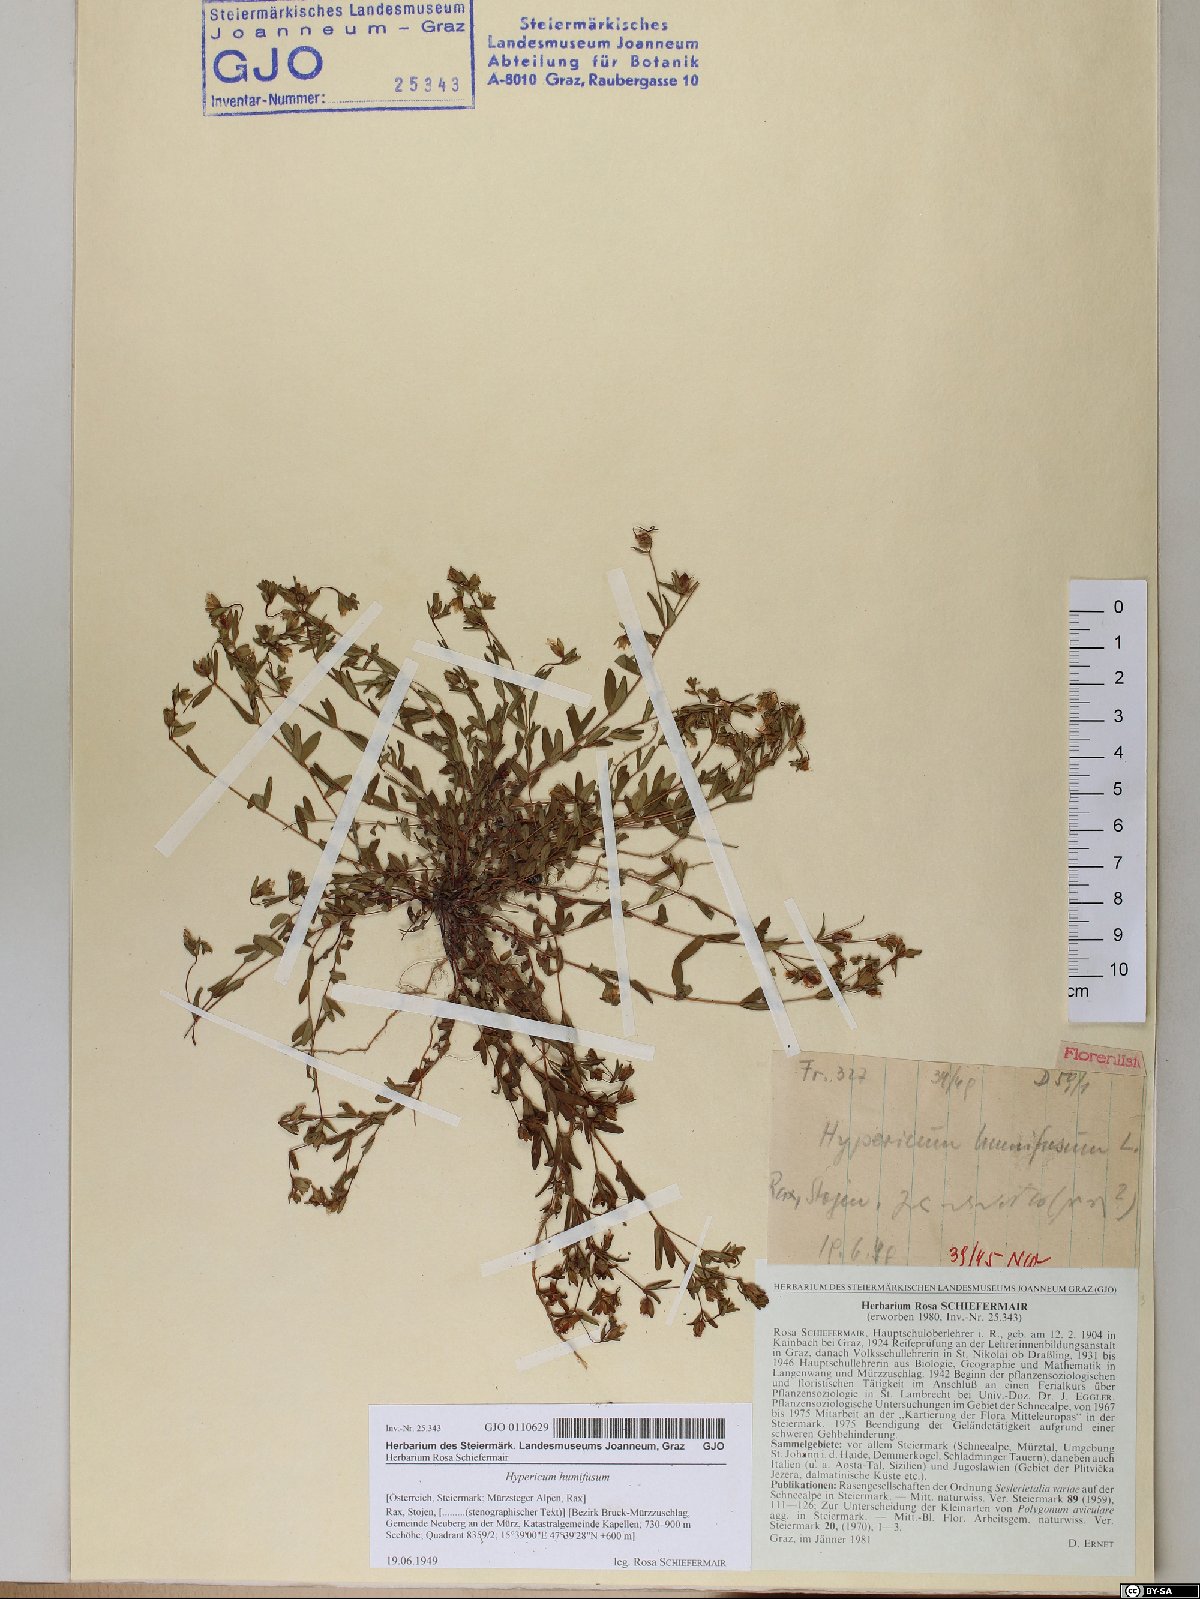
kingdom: Plantae
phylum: Tracheophyta
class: Magnoliopsida
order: Malpighiales
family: Hypericaceae
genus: Hypericum
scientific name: Hypericum humifusum
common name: Trailing st. john's-wort
